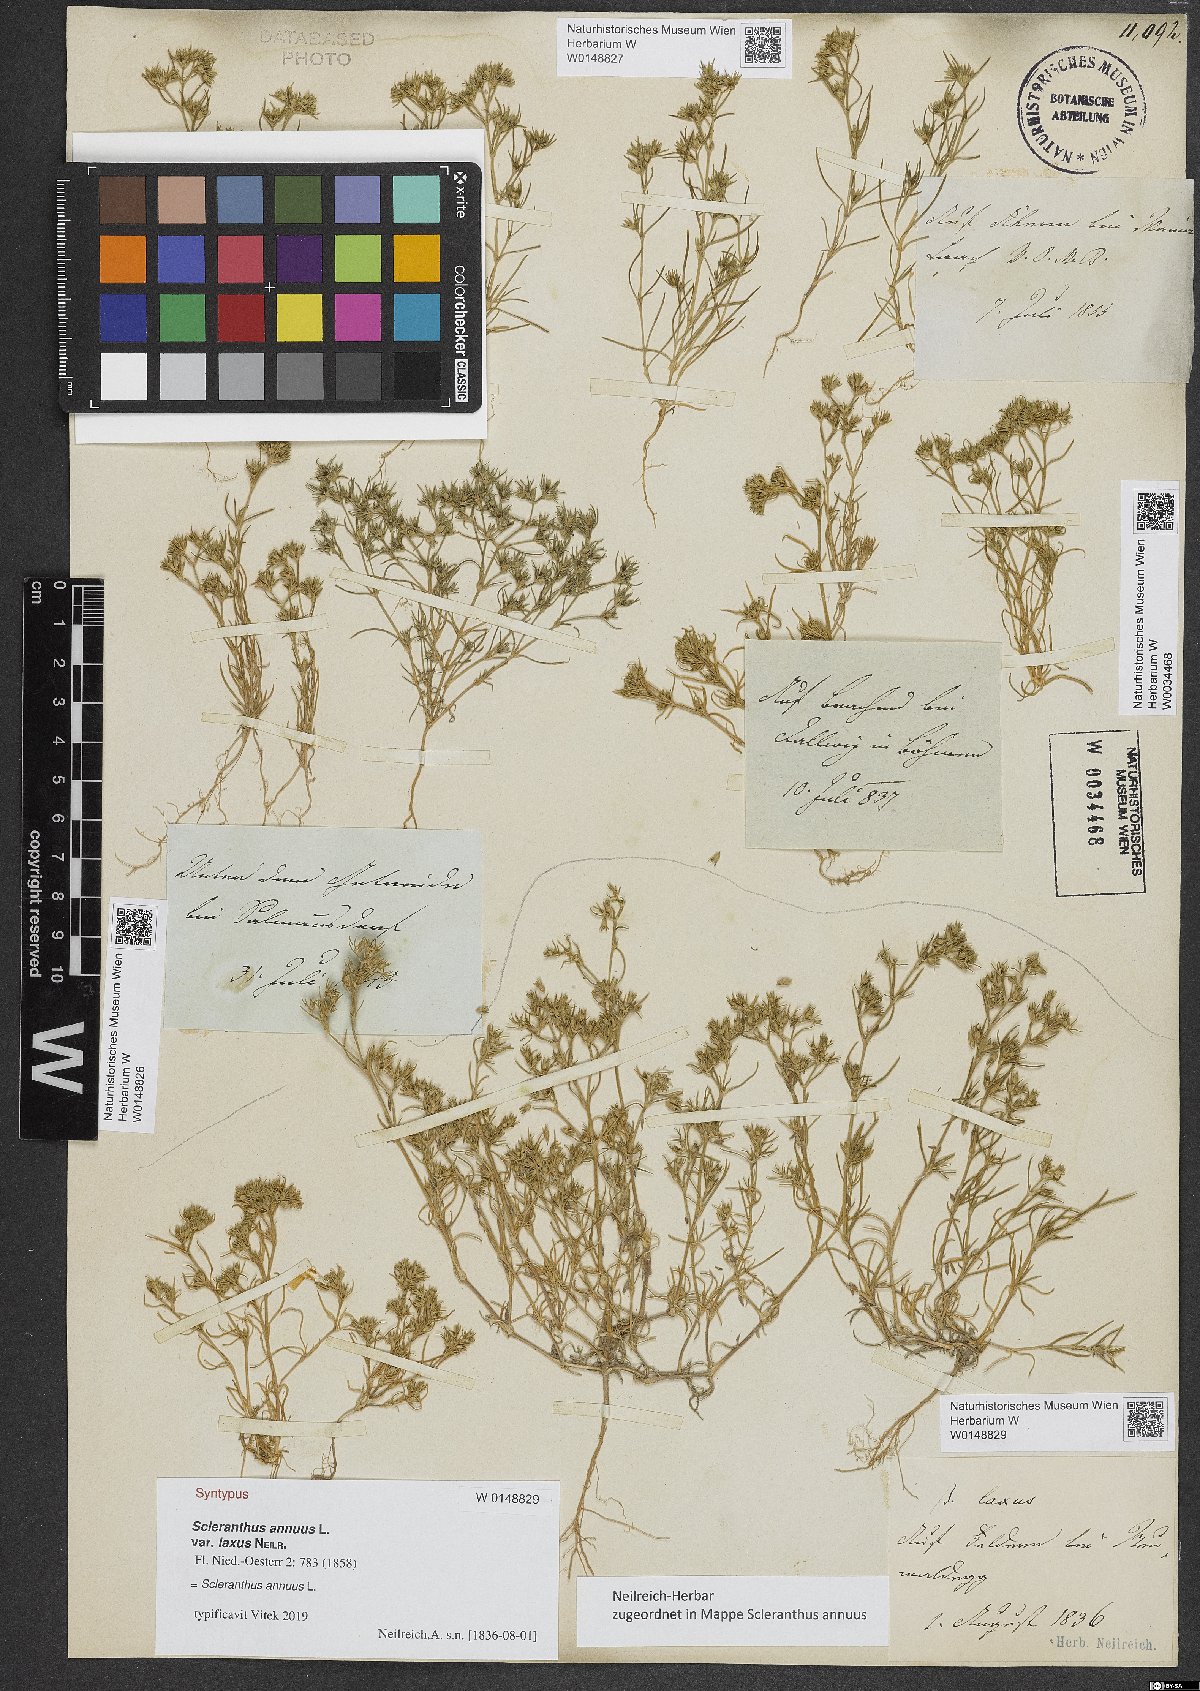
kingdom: Plantae
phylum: Tracheophyta
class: Magnoliopsida
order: Caryophyllales
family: Caryophyllaceae
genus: Scleranthus
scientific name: Scleranthus annuus
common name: Annual knawel
